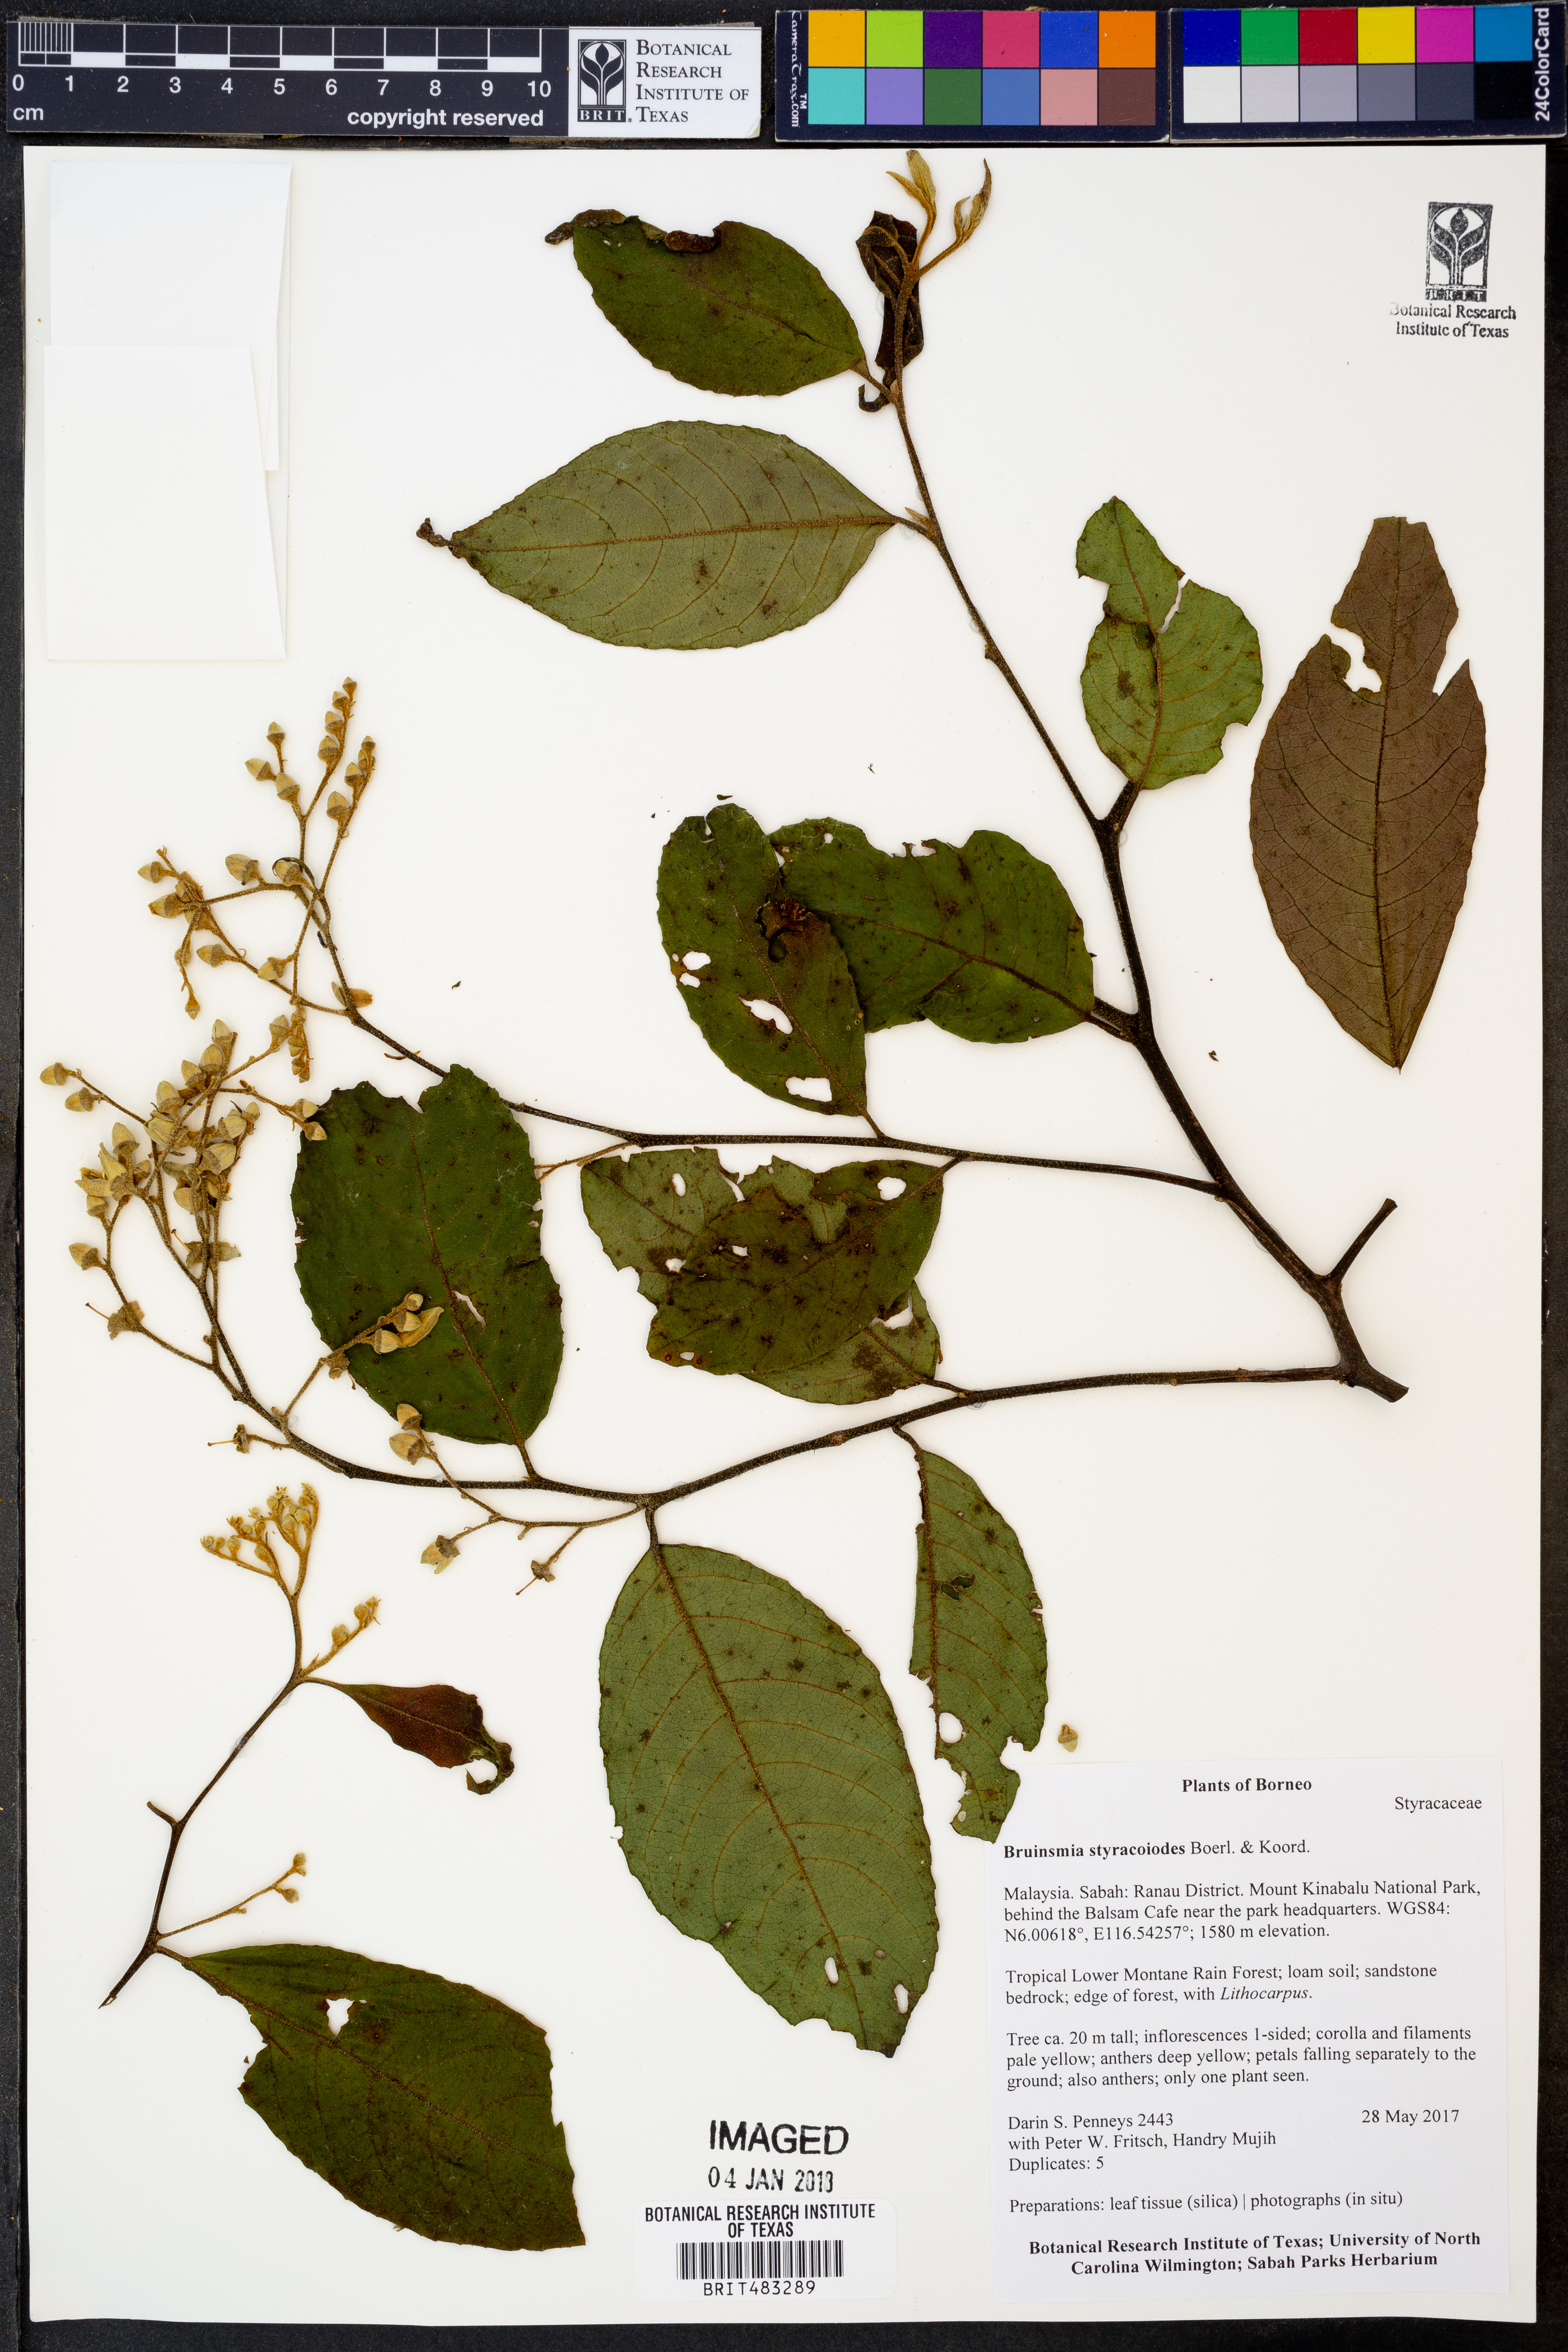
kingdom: Plantae
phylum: Tracheophyta
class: Magnoliopsida
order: Ericales
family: Styracaceae
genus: Bruinsmia
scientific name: Bruinsmia styracoides
